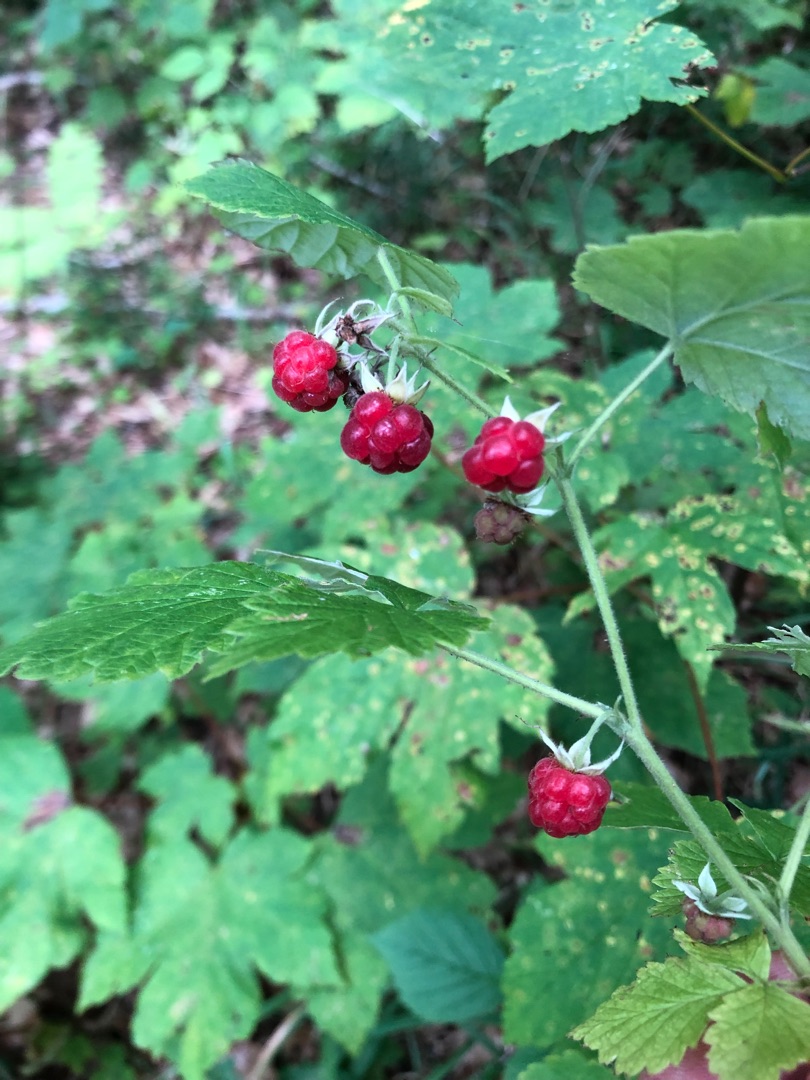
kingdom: Plantae
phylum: Tracheophyta
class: Magnoliopsida
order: Rosales
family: Rosaceae
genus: Rubus
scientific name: Rubus idaeus
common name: Hindbær
